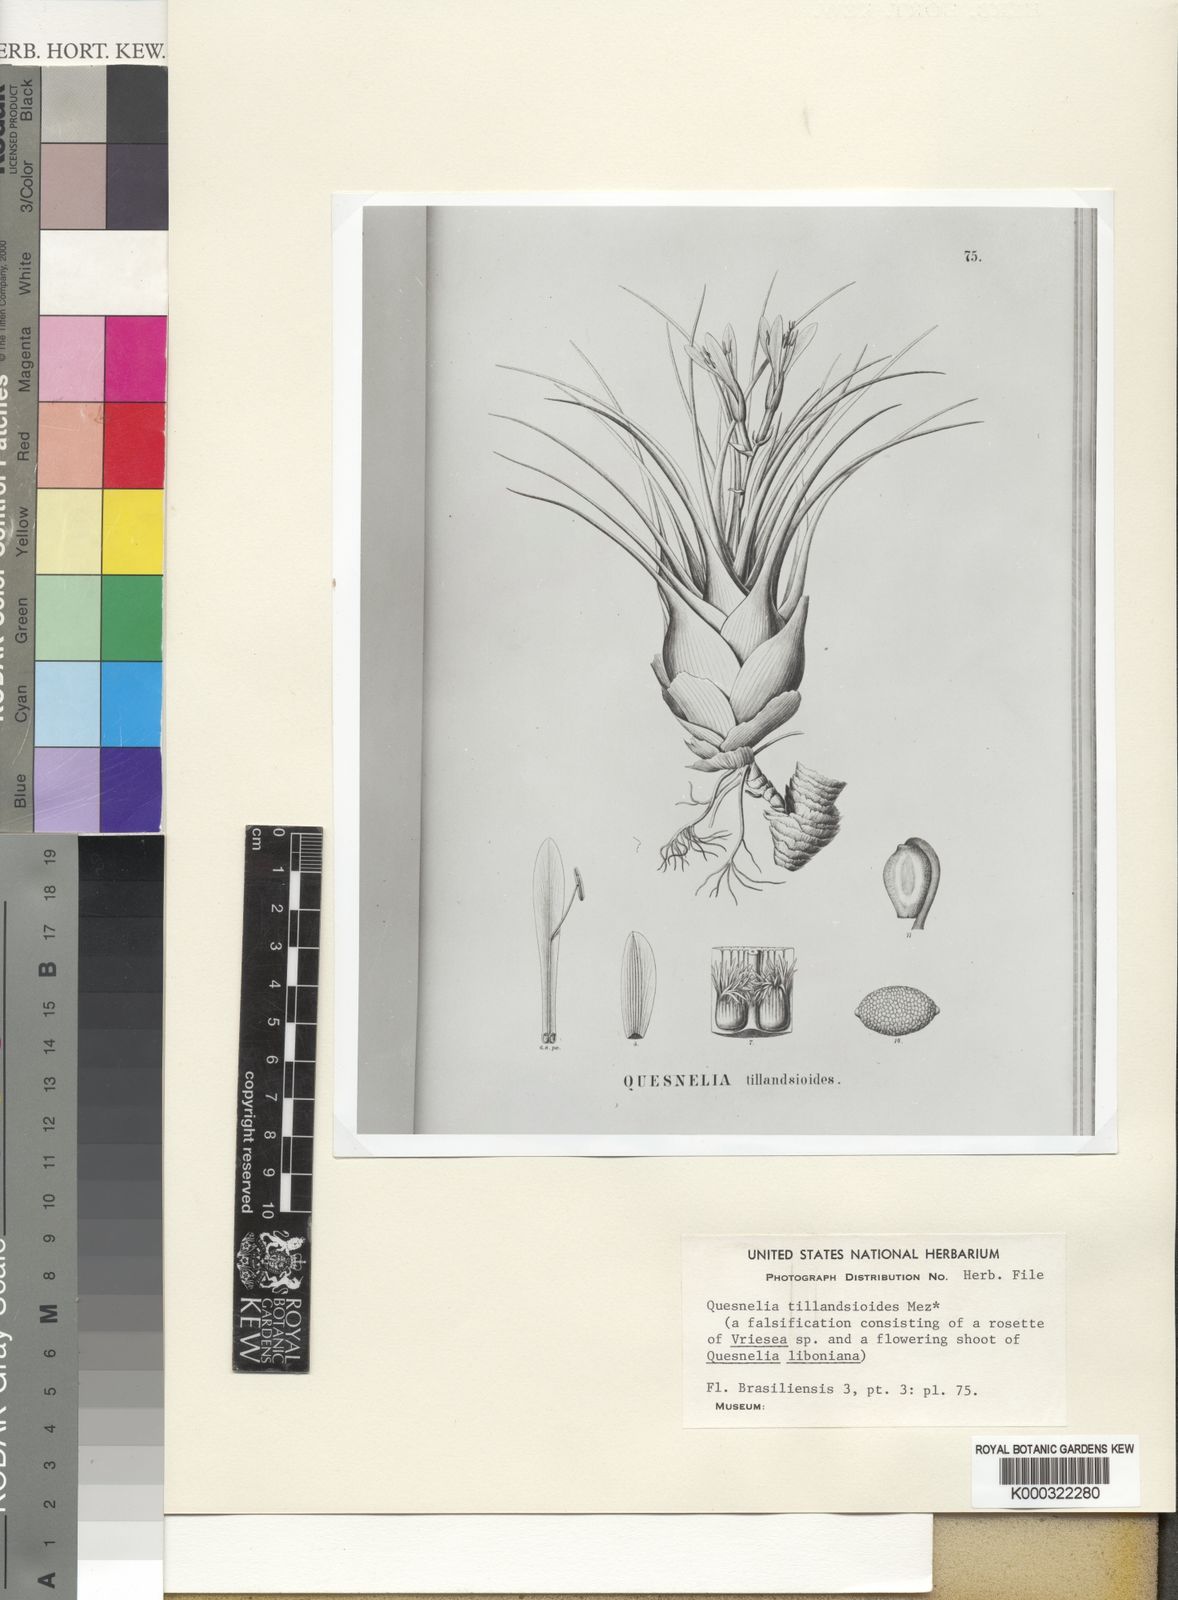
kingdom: Plantae
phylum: Tracheophyta
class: Liliopsida
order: Poales
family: Bromeliaceae
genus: Quesnelia
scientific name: Quesnelia liboniana
